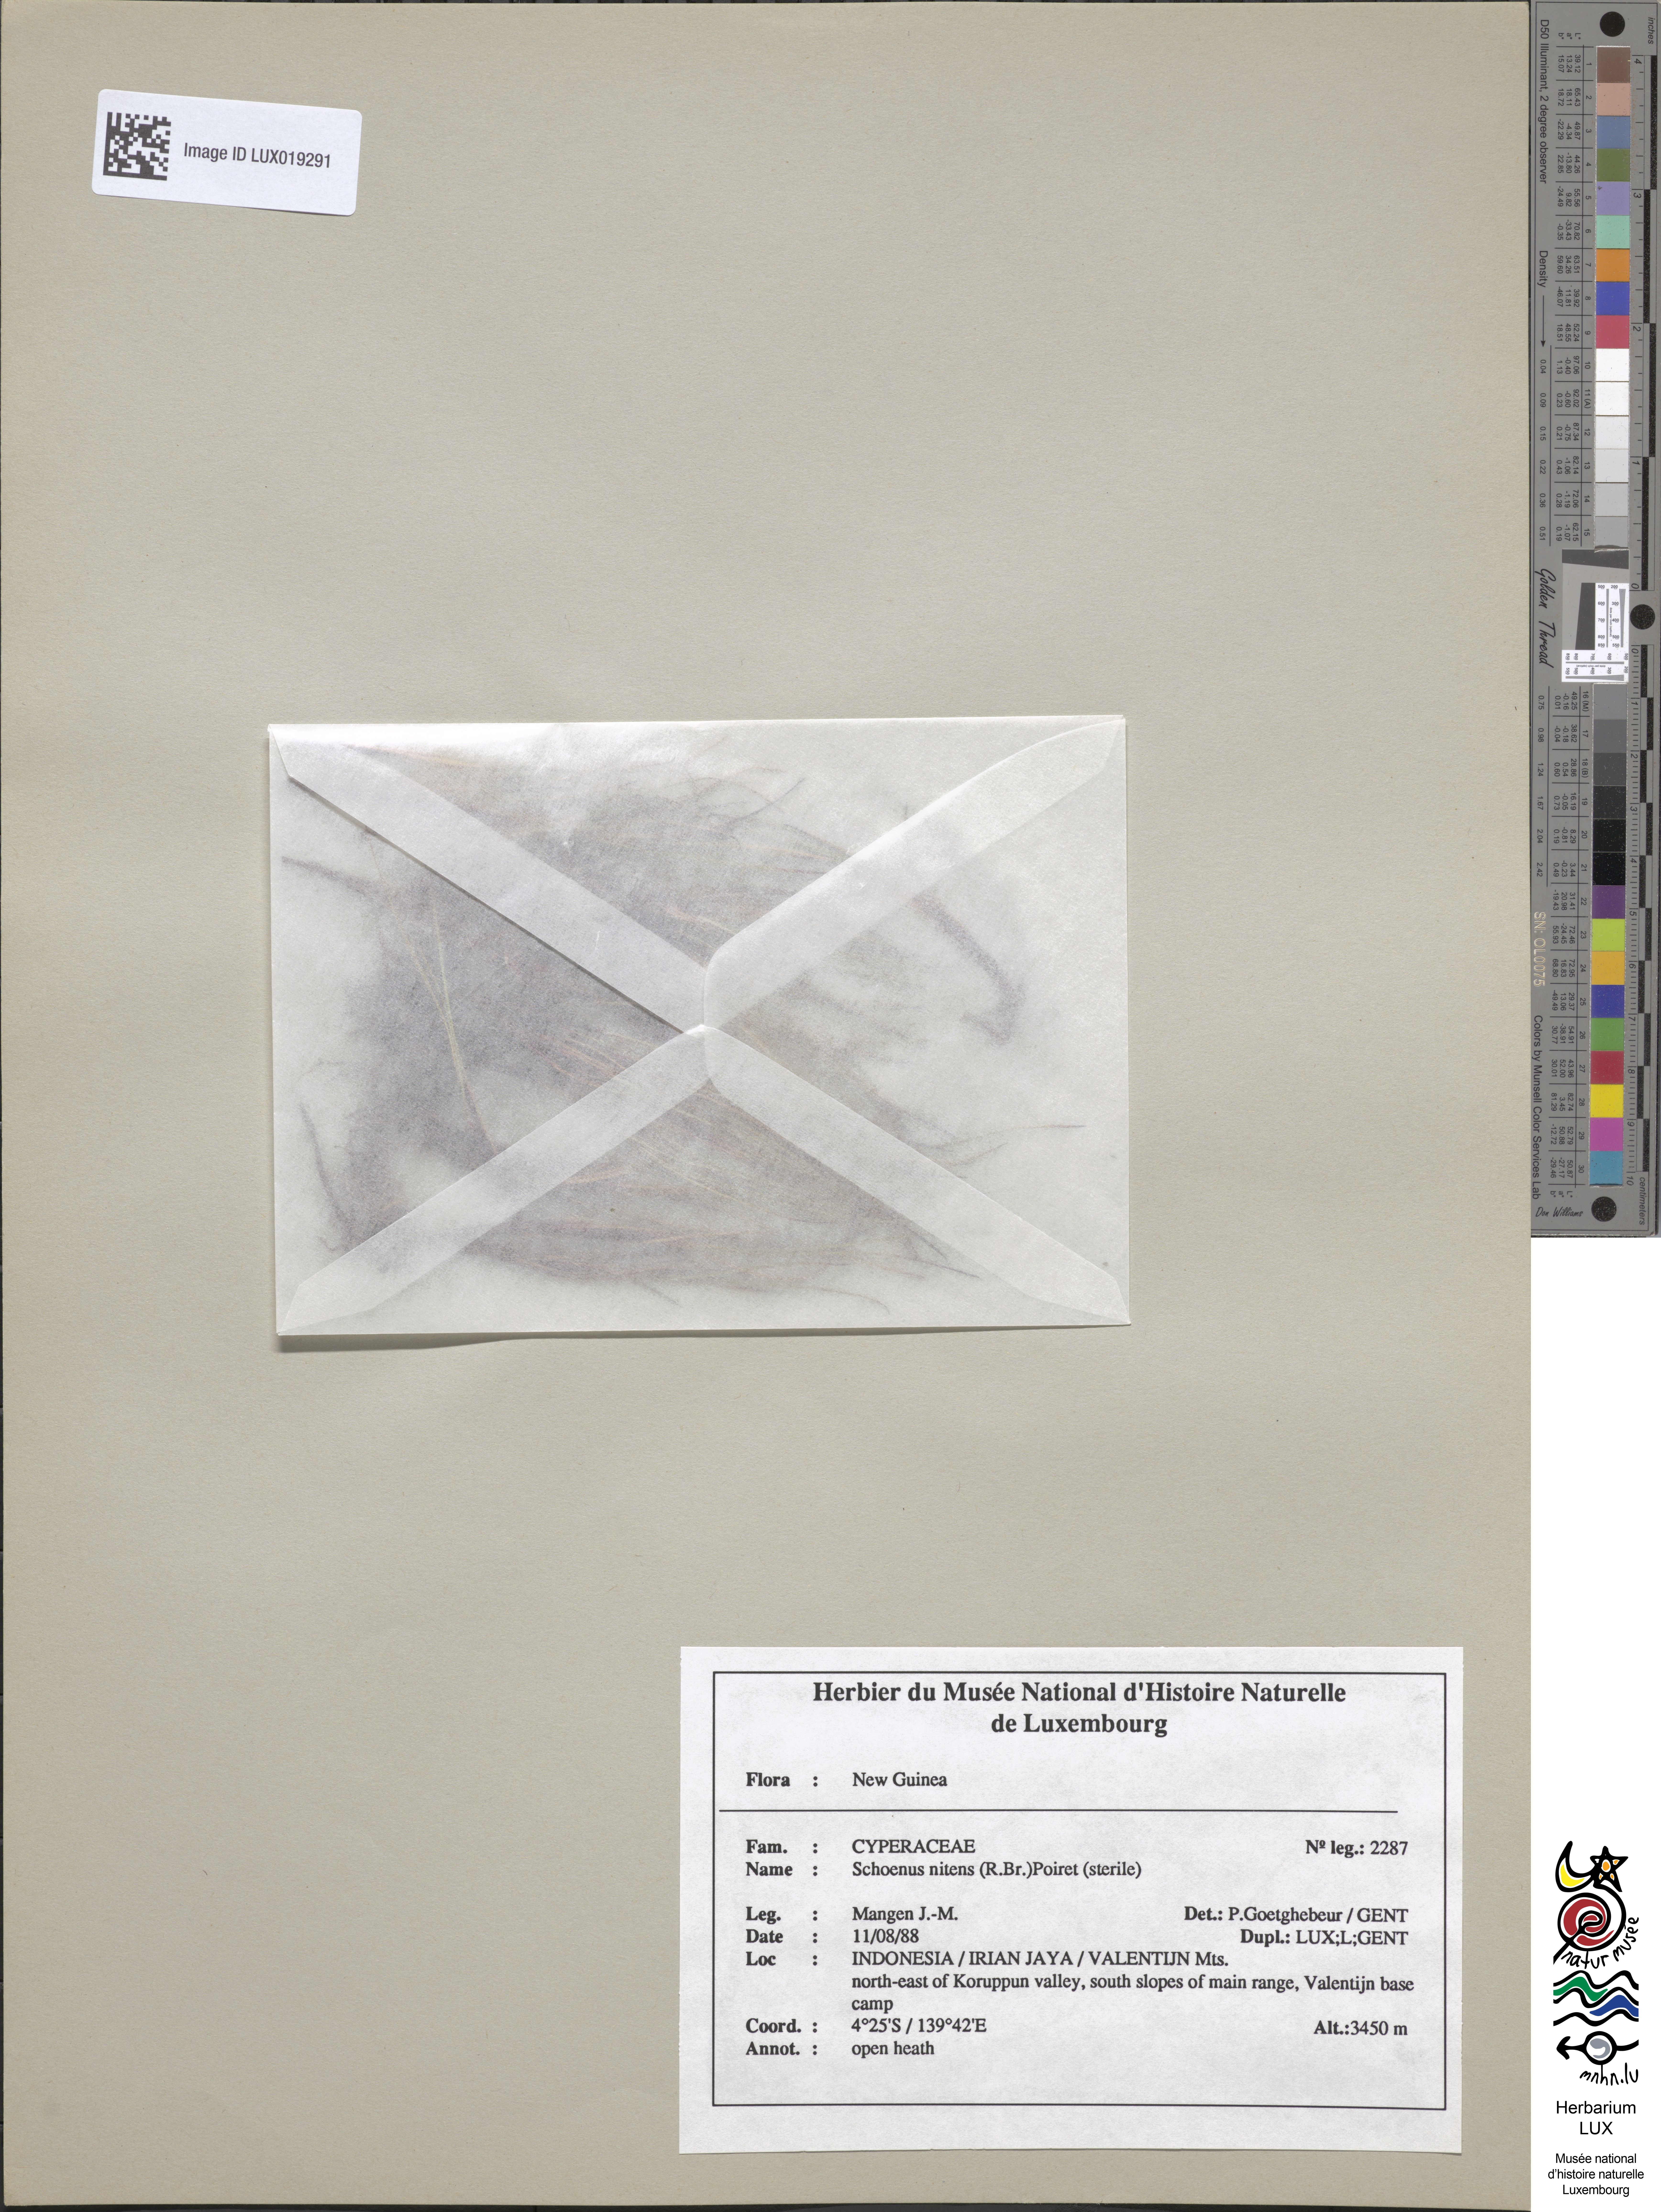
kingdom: Plantae
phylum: Tracheophyta
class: Liliopsida
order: Poales
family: Cyperaceae
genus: Schoenus
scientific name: Schoenus nitens
